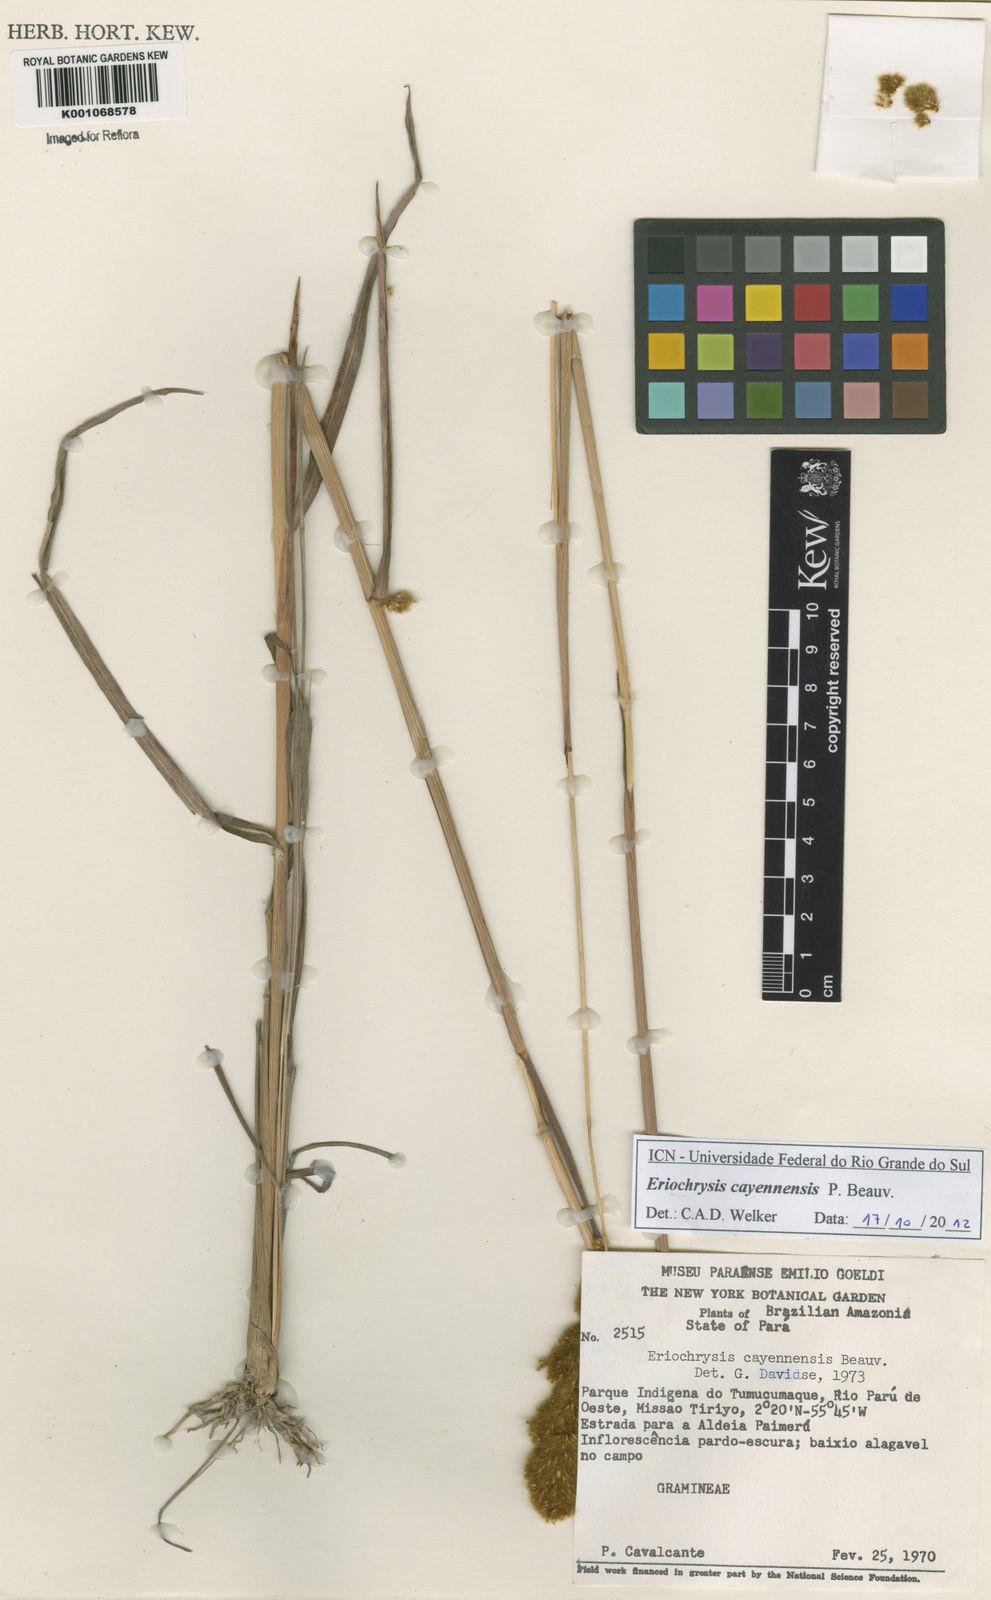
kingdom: Plantae
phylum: Tracheophyta
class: Liliopsida
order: Poales
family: Poaceae
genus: Eriochrysis
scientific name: Eriochrysis cayennensis
